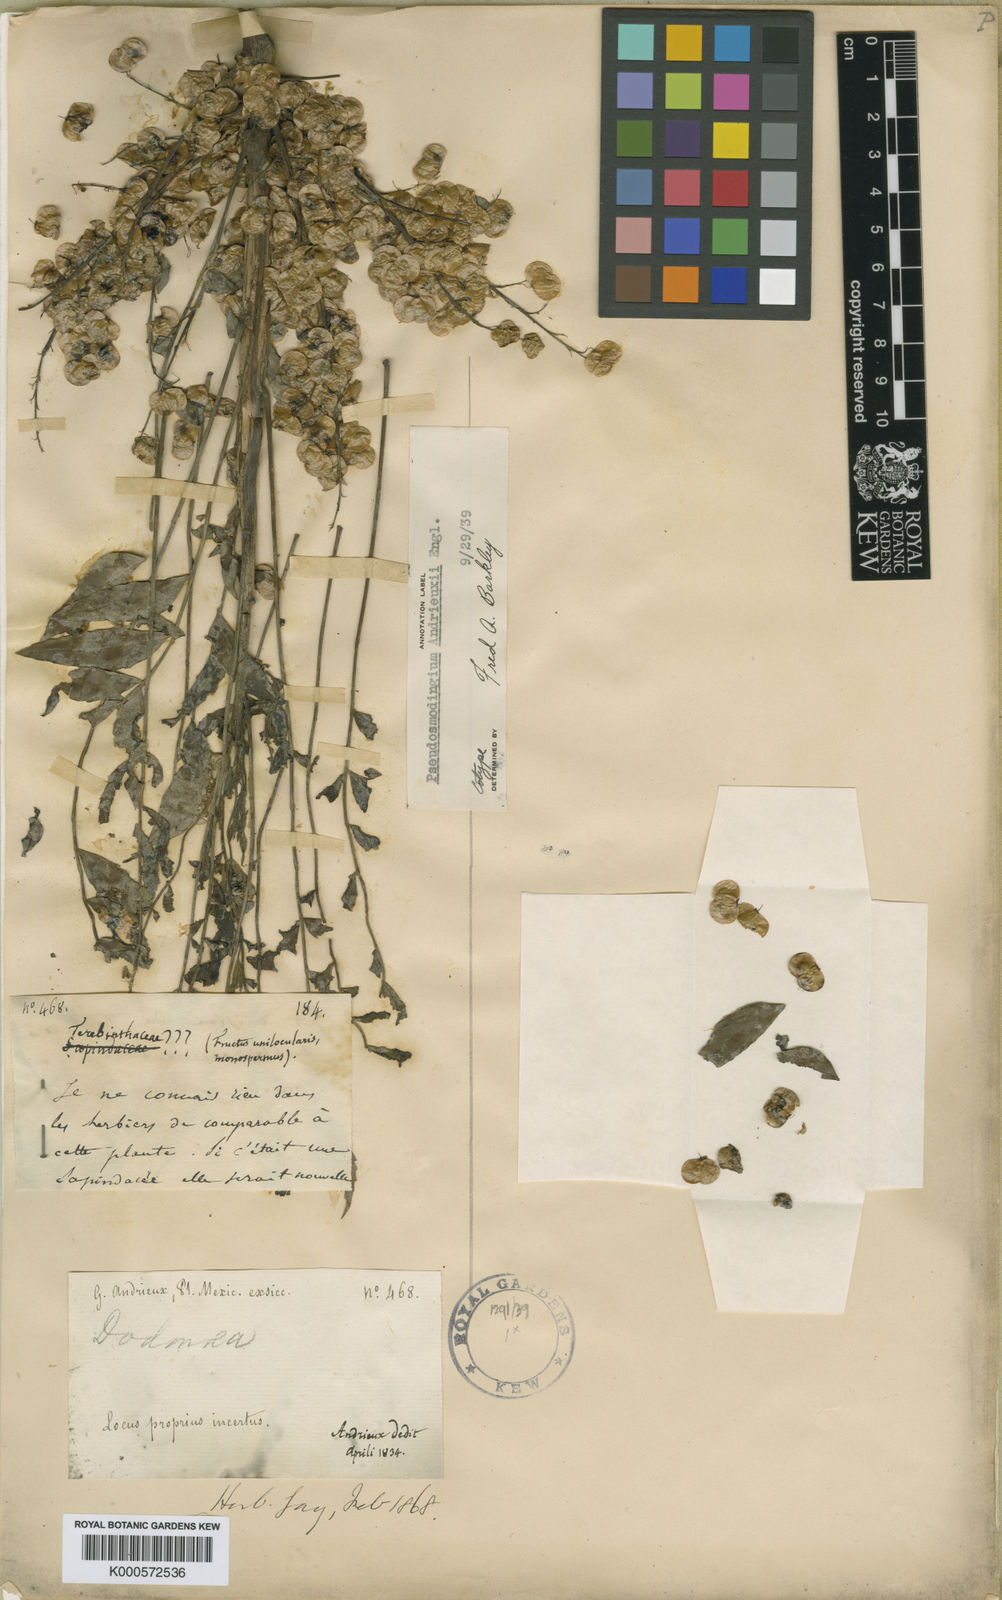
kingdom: Plantae
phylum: Tracheophyta
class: Magnoliopsida
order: Sapindales
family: Anacardiaceae
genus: Pseudosmodingium
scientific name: Pseudosmodingium andrieuxii
